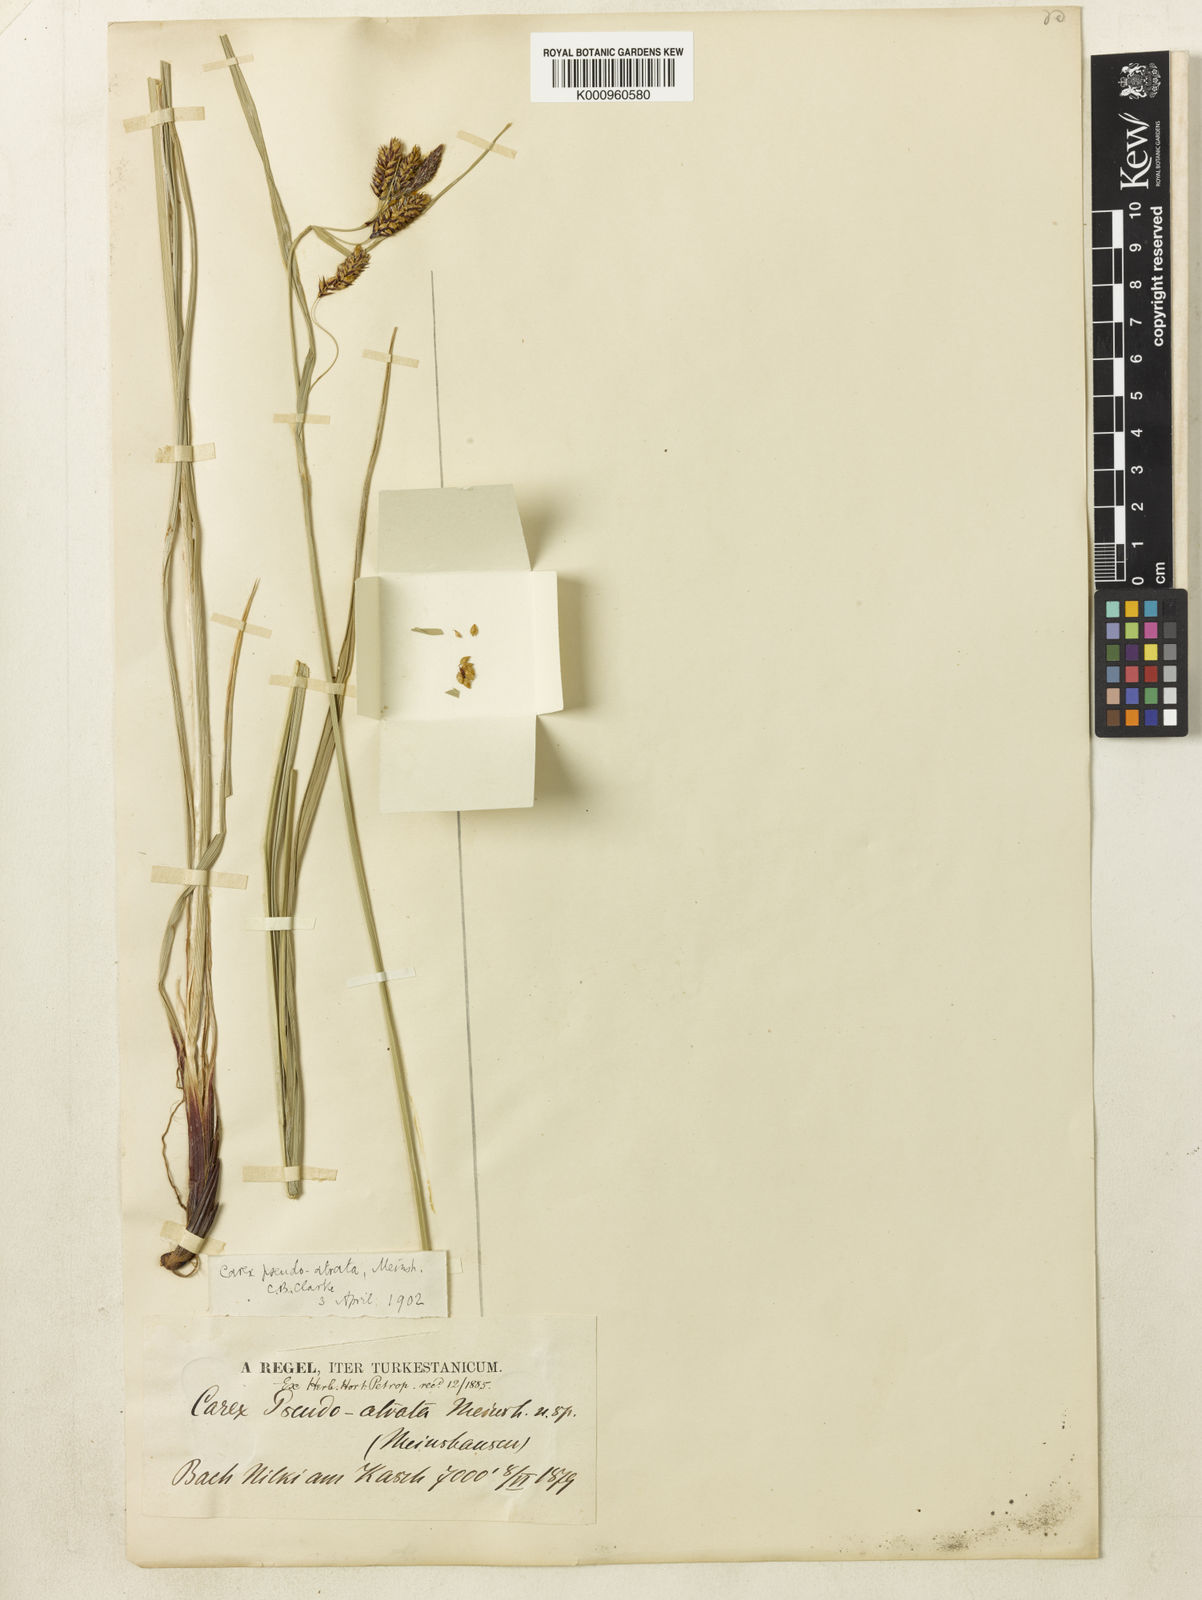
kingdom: Plantae
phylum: Tracheophyta
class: Liliopsida
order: Poales
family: Cyperaceae
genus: Carex
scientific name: Carex atrata
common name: Black alpine sedge
